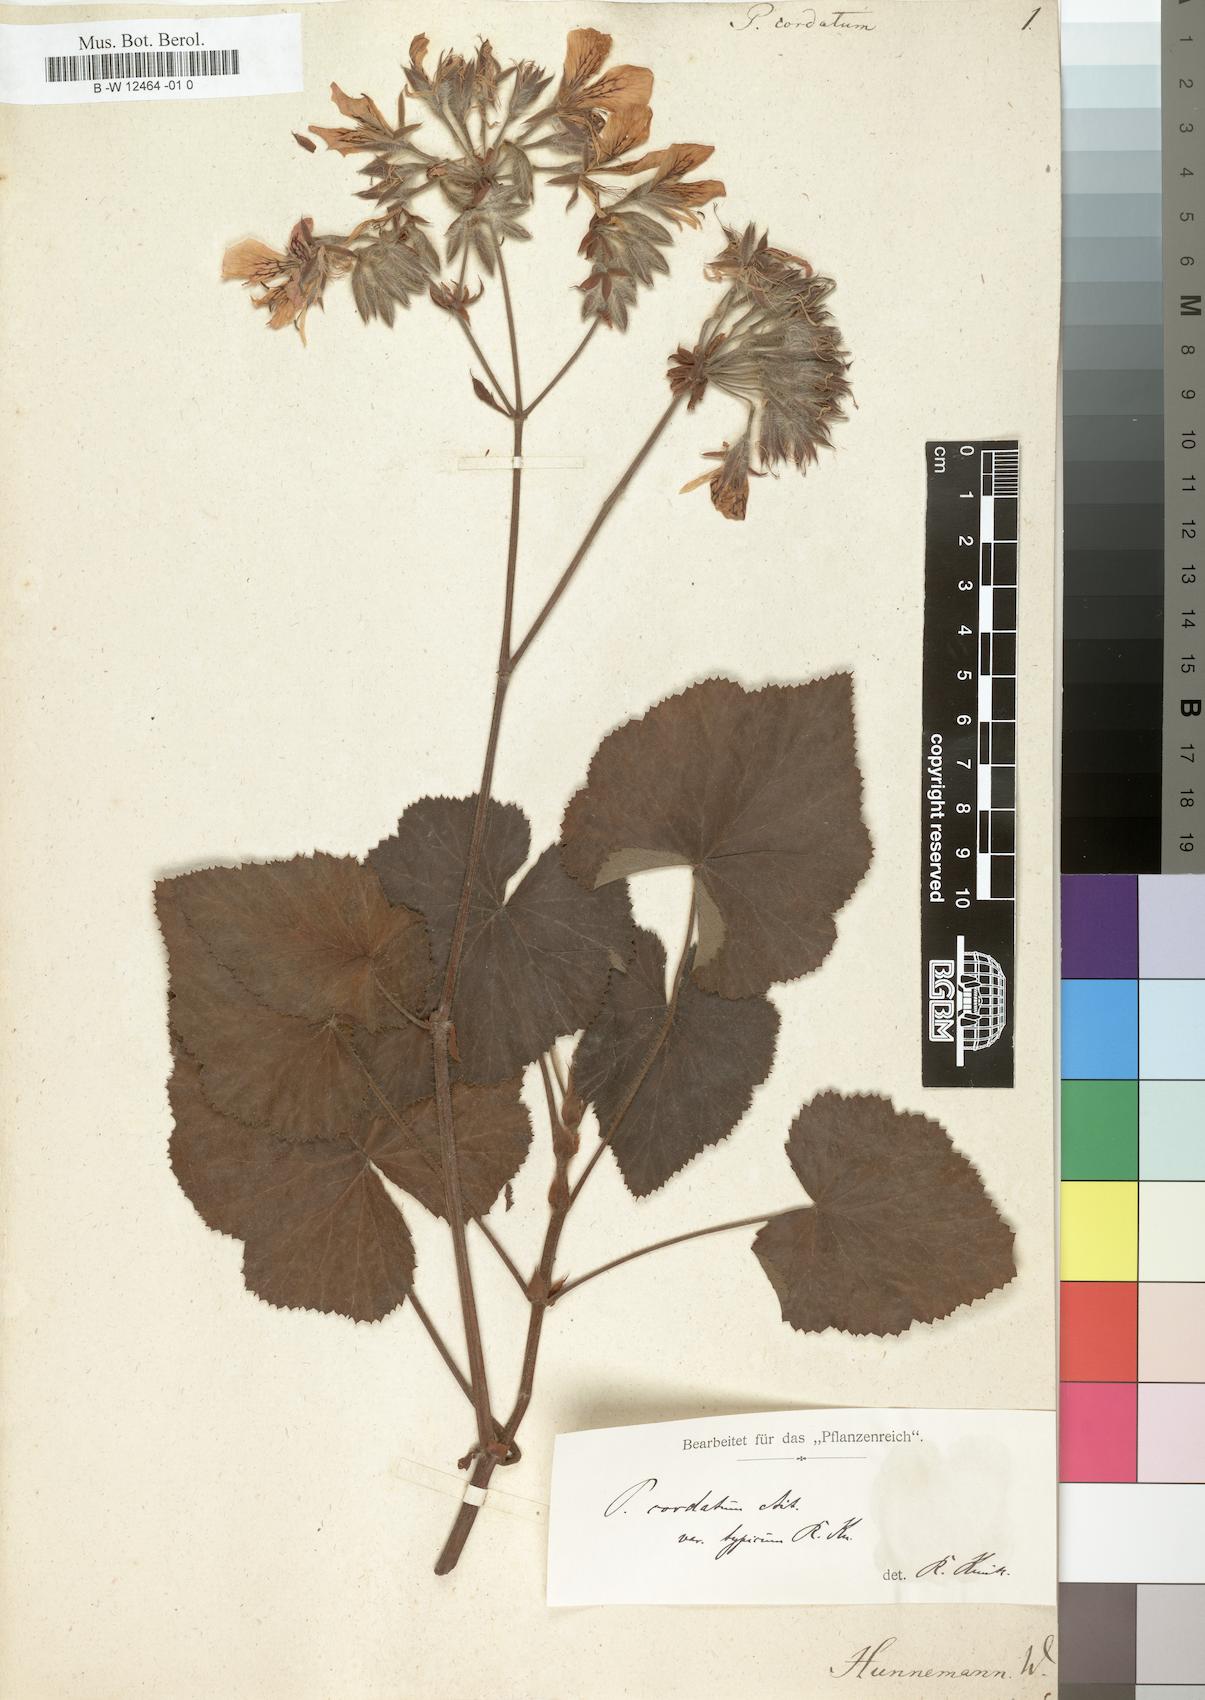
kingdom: Plantae
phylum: Tracheophyta
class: Magnoliopsida
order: Geraniales
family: Geraniaceae
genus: Pelargonium
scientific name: Pelargonium cordifolium
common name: Heart-leaf pelargonium
